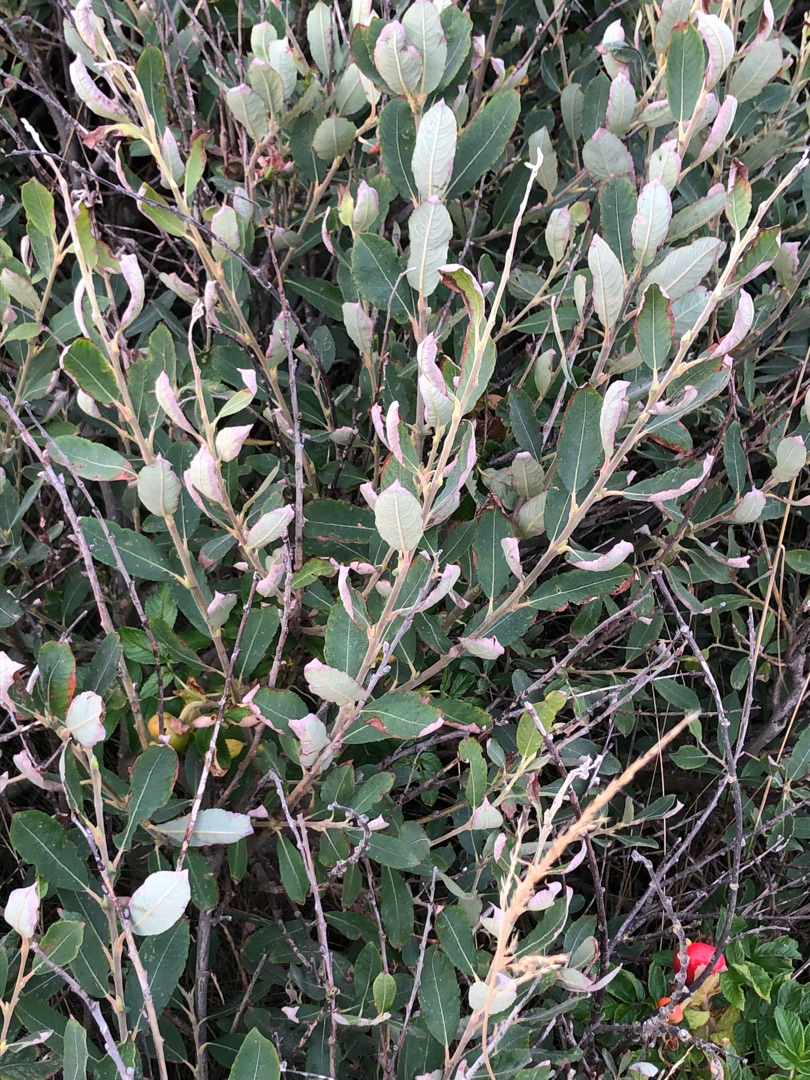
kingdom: Plantae
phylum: Tracheophyta
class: Magnoliopsida
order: Malpighiales
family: Salicaceae
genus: Salix
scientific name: Salix cinerea
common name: Grå-pil
